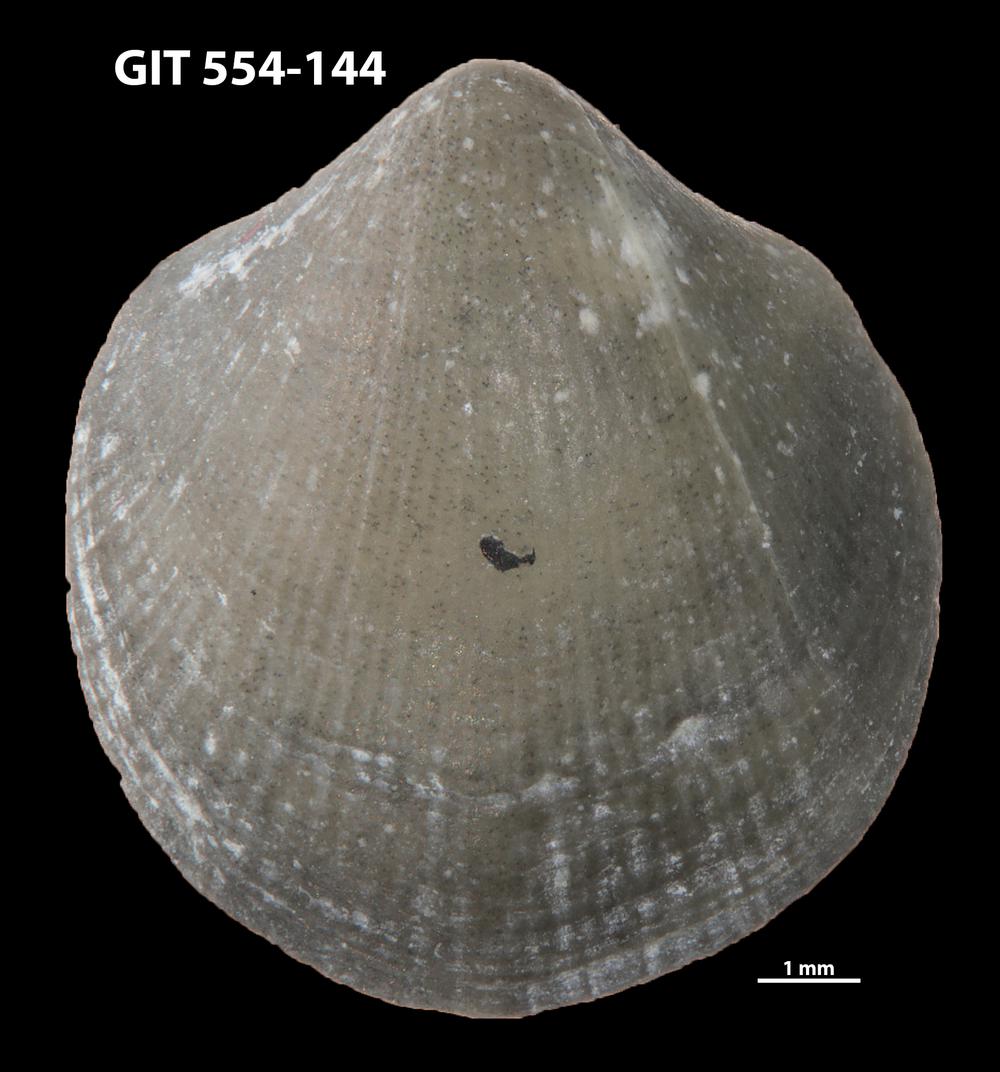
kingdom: Animalia
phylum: Brachiopoda
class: Rhynchonellata
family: Dalmanellidae
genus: Visbyella
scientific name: Visbyella Orthis visbyensis
